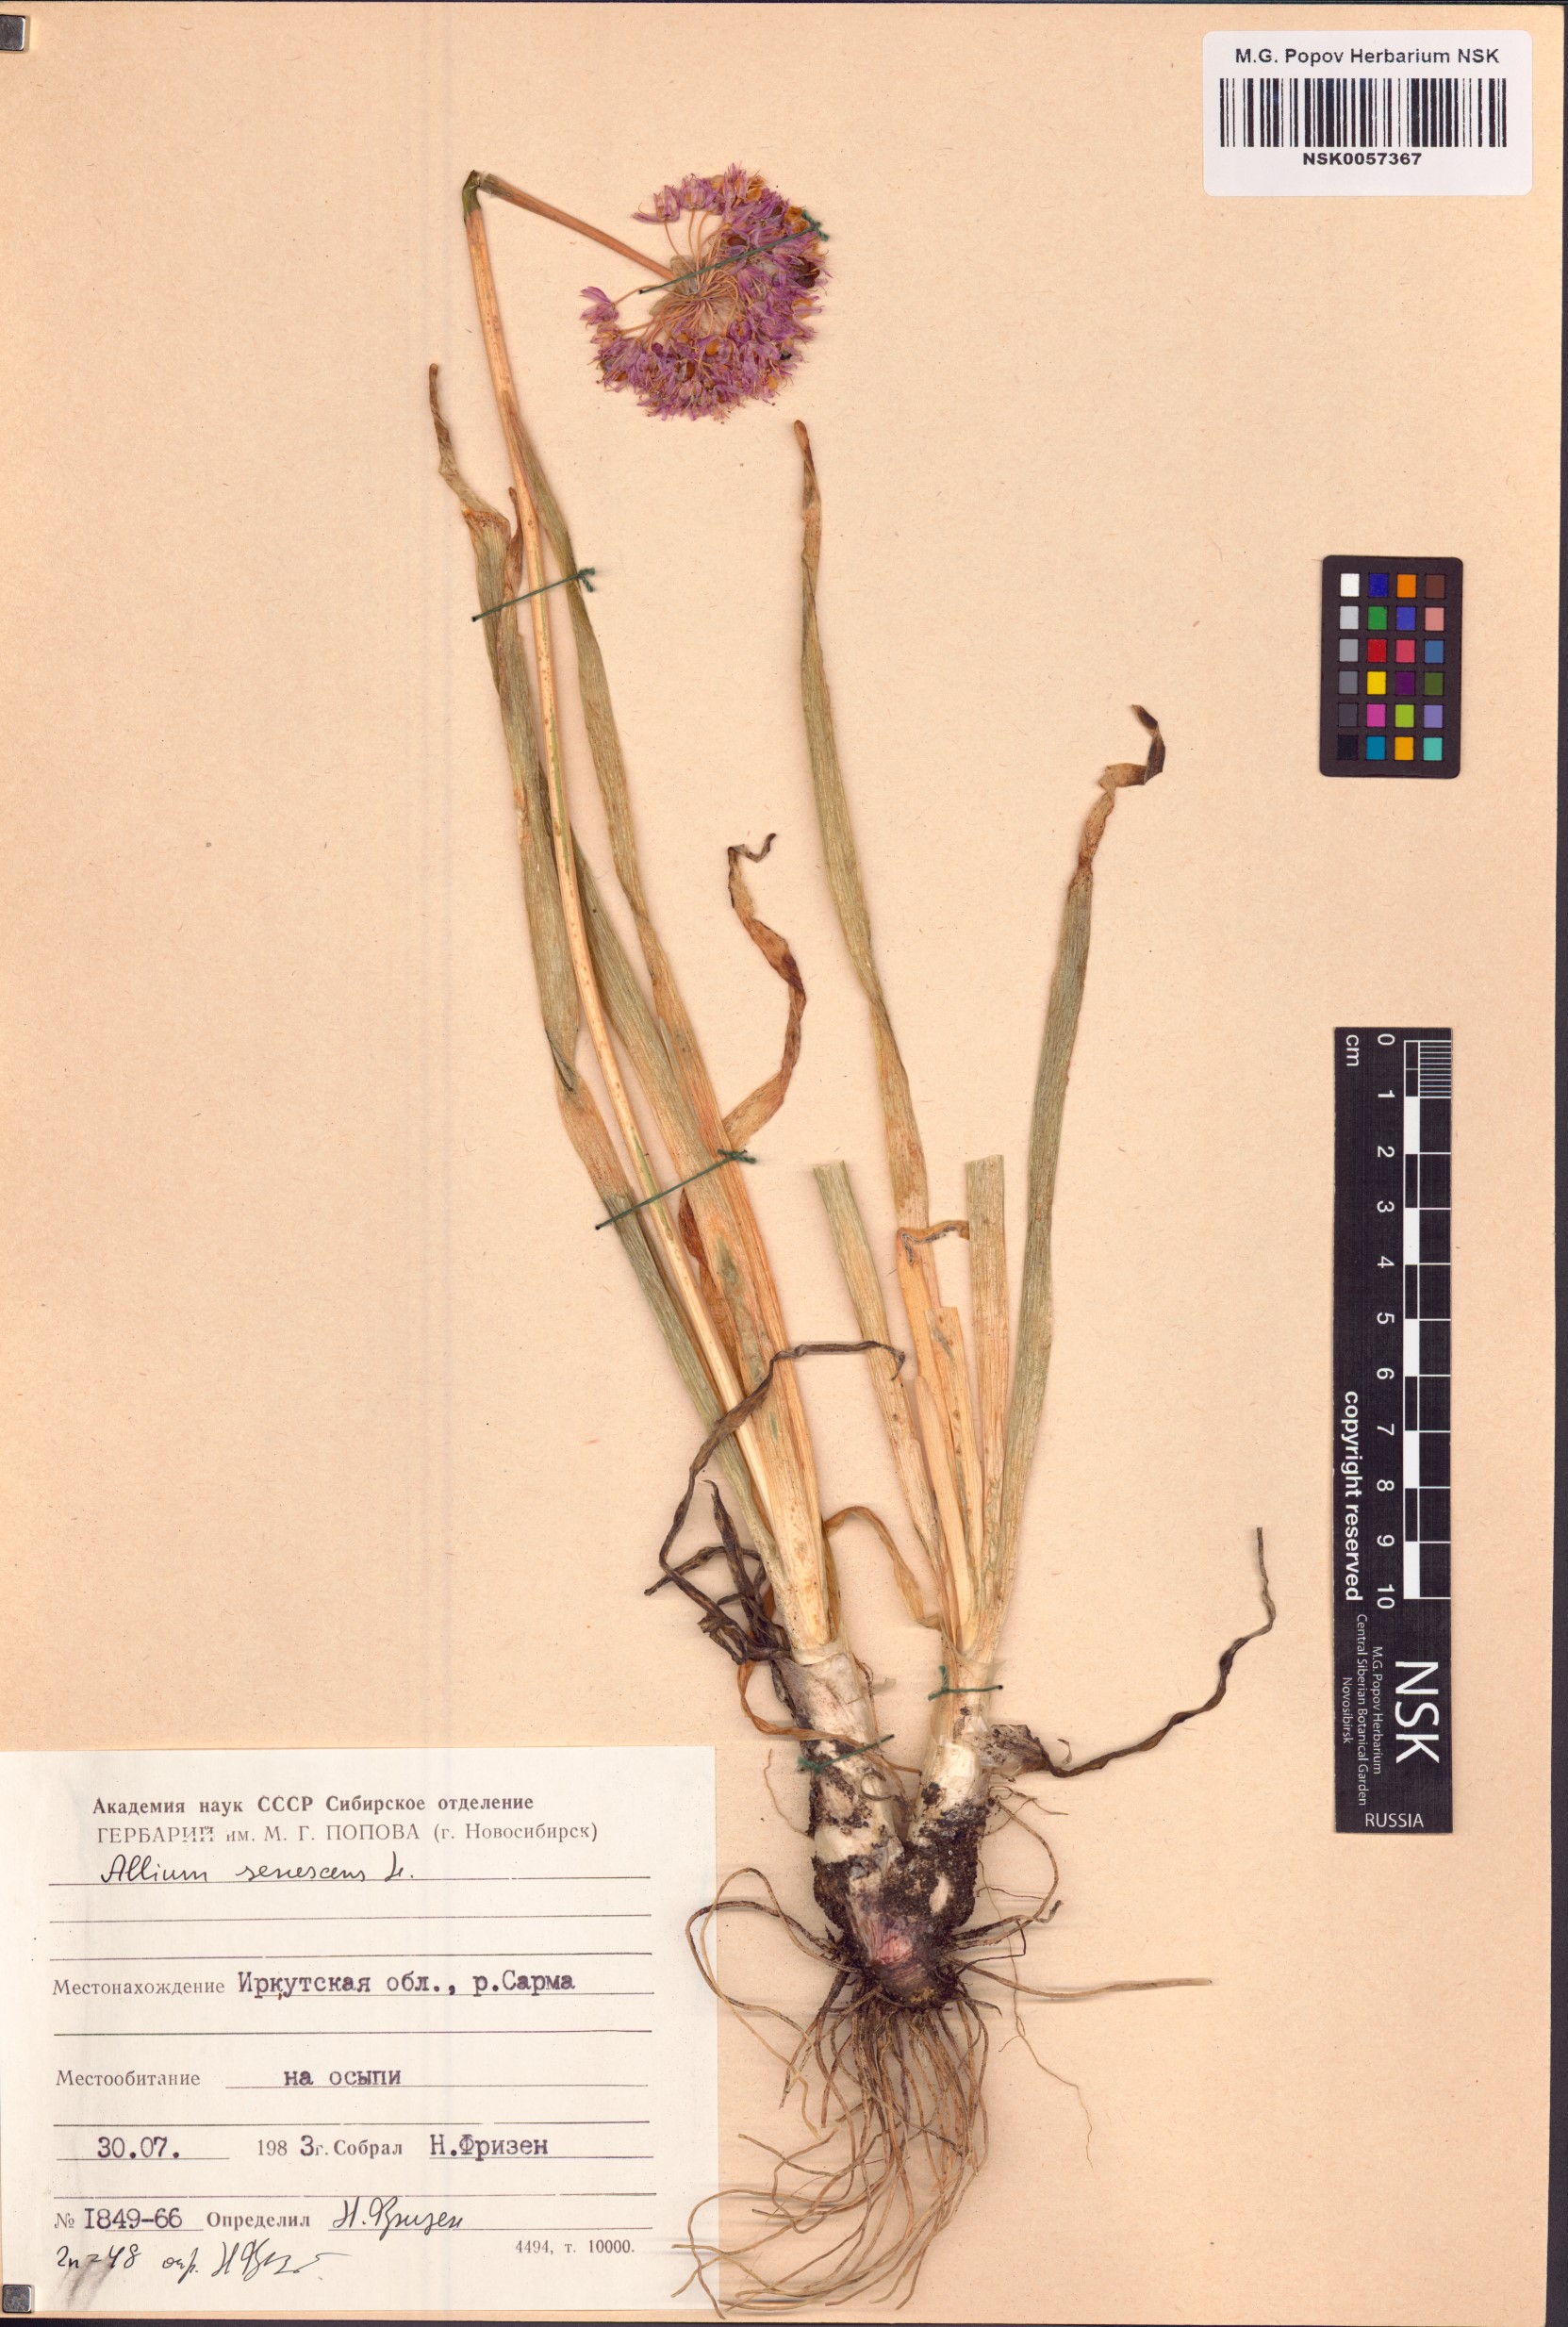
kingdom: Plantae
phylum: Tracheophyta
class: Liliopsida
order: Asparagales
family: Amaryllidaceae
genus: Allium
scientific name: Allium senescens
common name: German garlic
